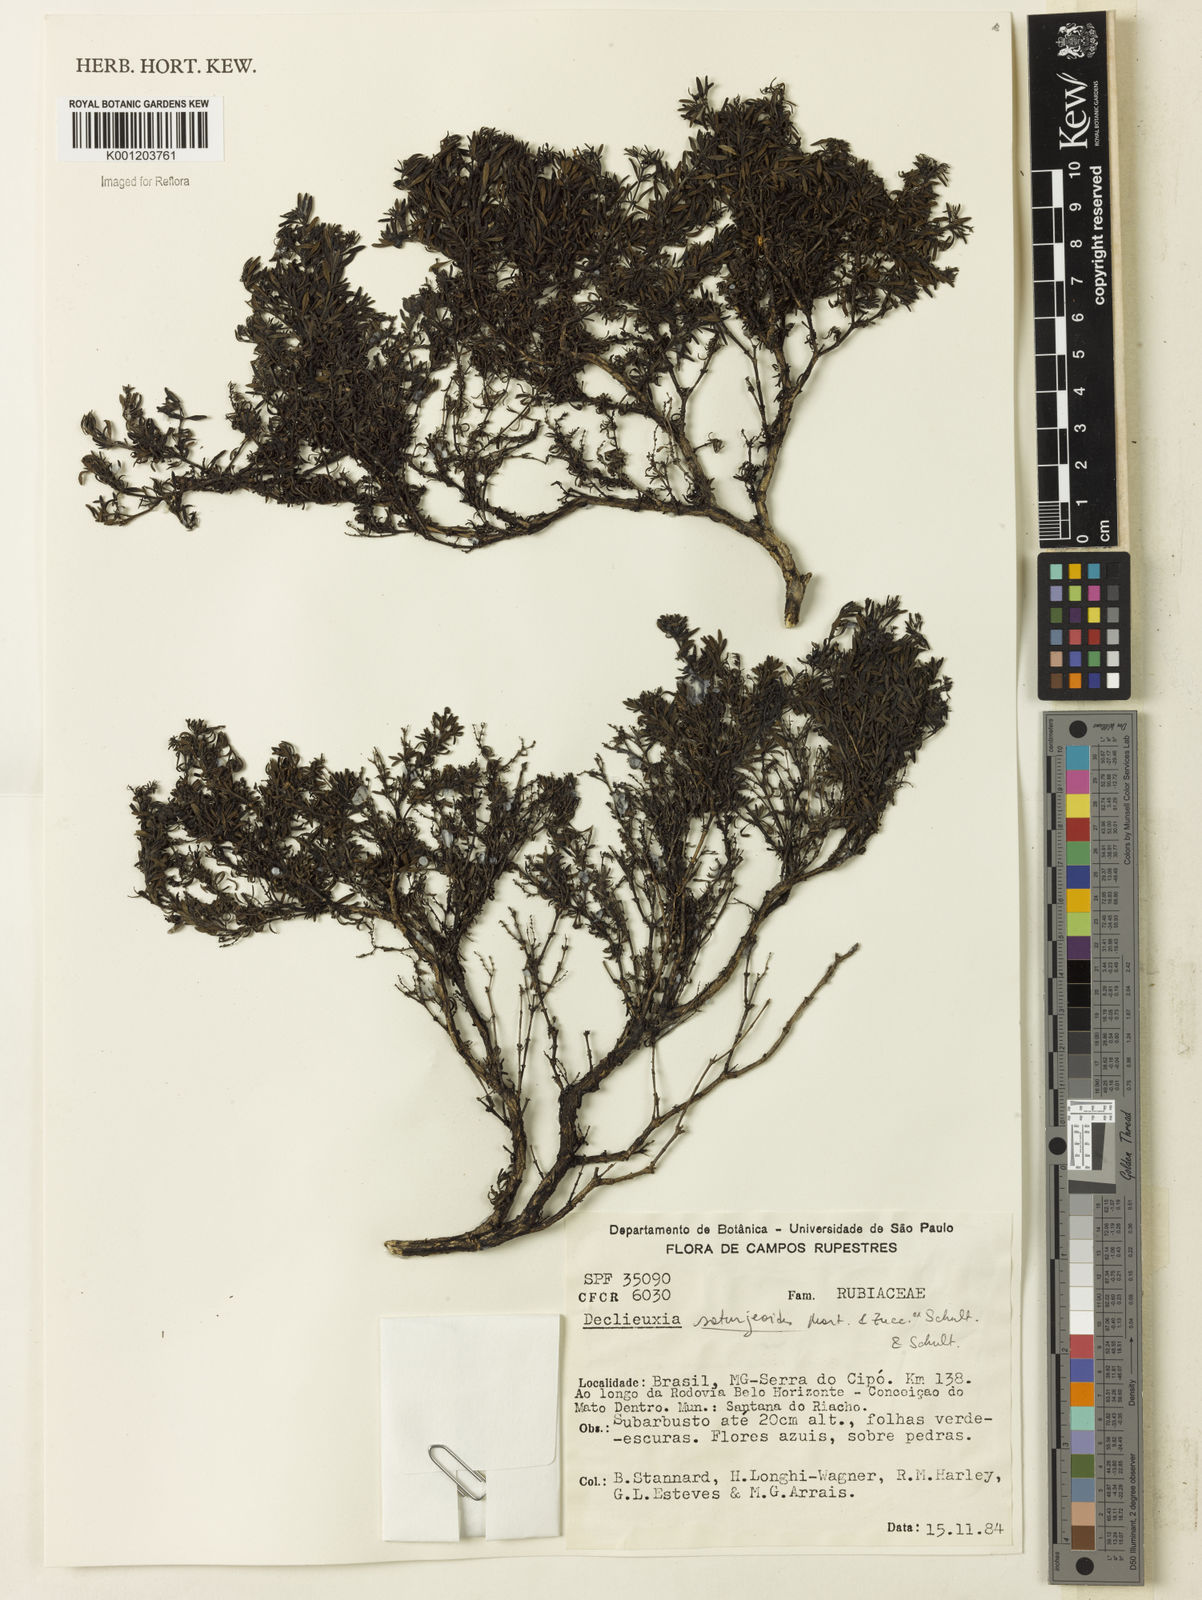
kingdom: Plantae
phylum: Tracheophyta
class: Magnoliopsida
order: Gentianales
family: Rubiaceae
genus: Declieuxia
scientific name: Declieuxia
